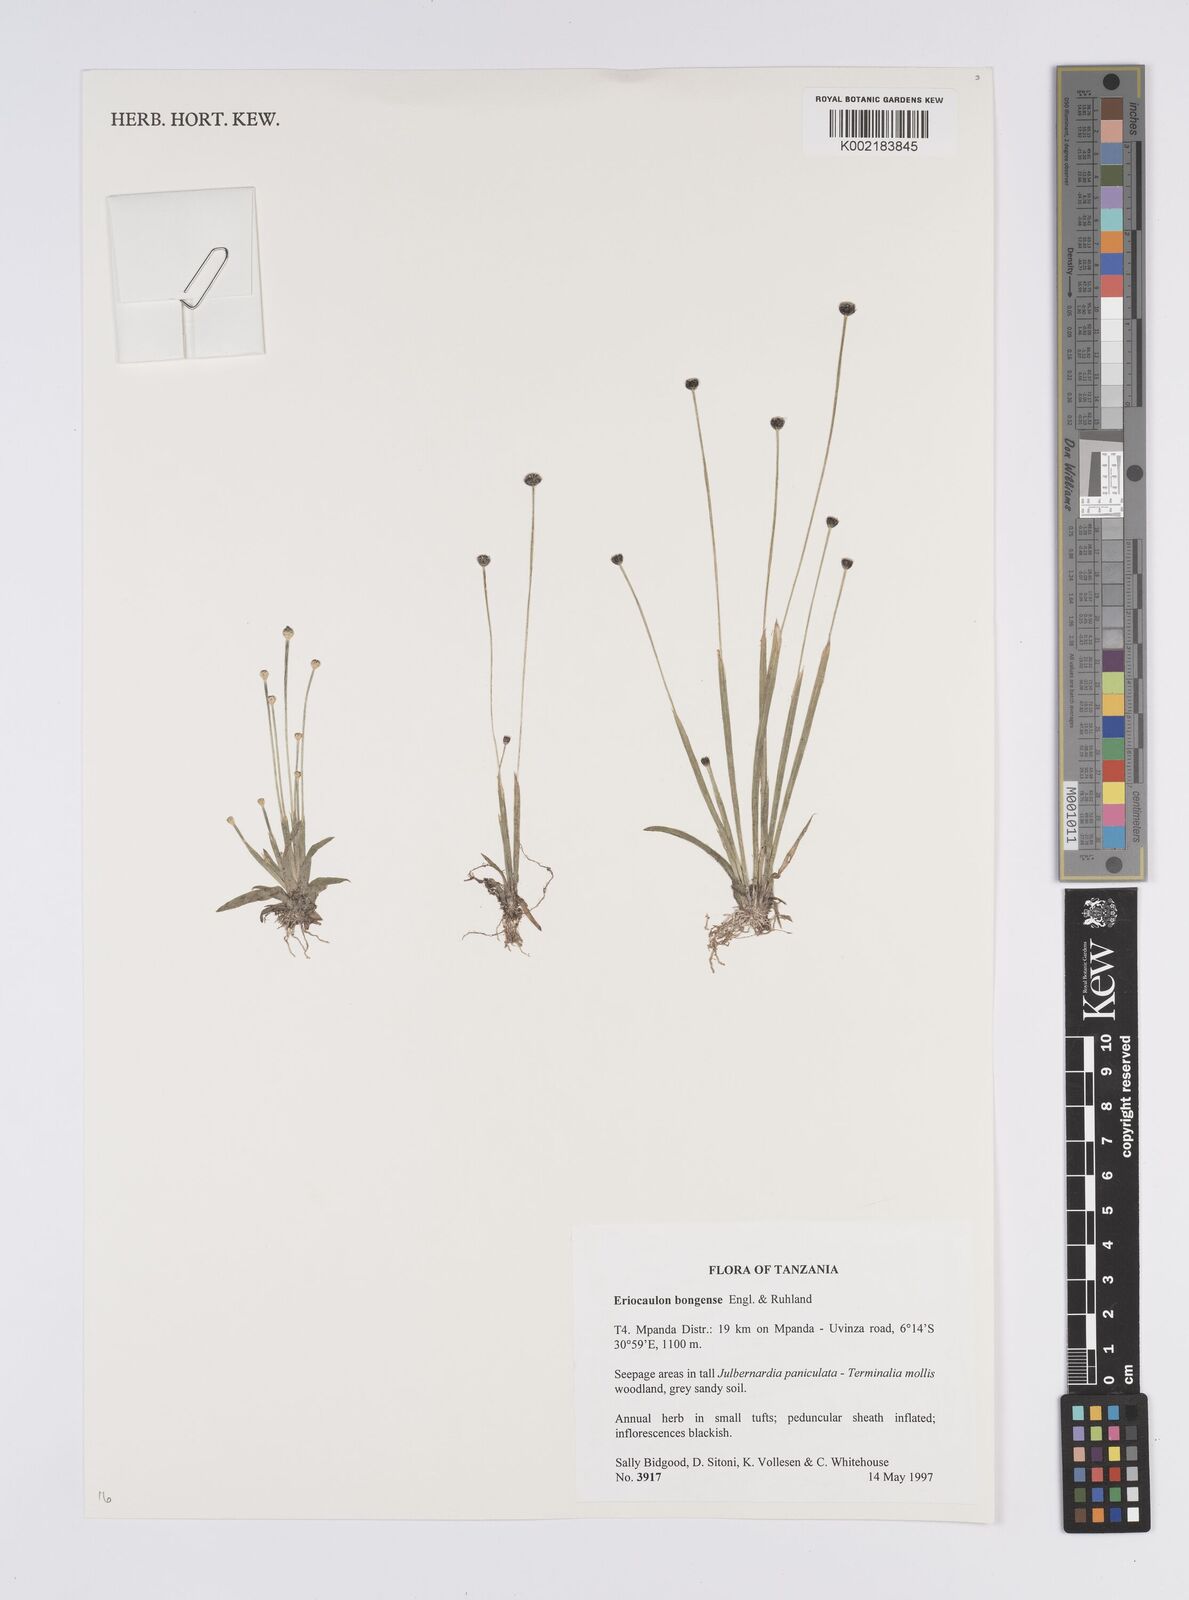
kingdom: Plantae
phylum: Tracheophyta
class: Liliopsida
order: Poales
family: Eriocaulaceae
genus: Eriocaulon
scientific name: Eriocaulon bongense
